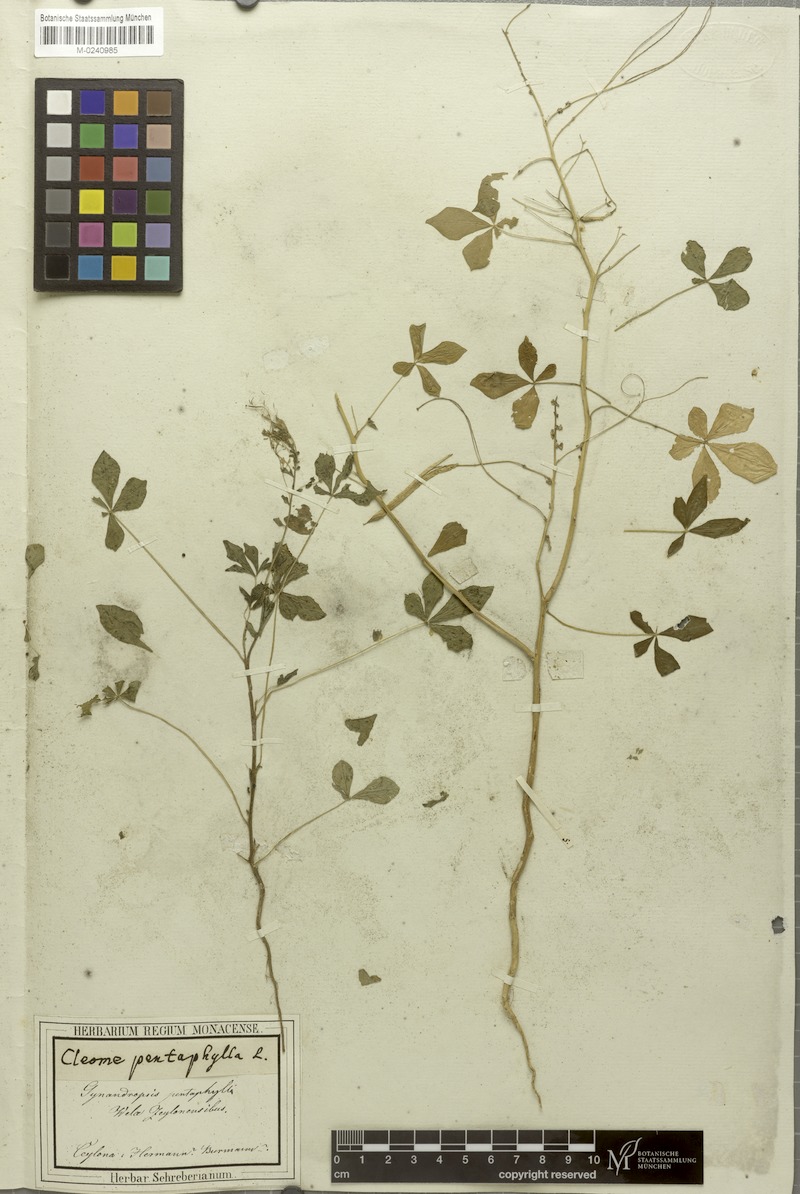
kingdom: Plantae
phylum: Tracheophyta
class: Magnoliopsida
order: Brassicales
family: Cleomaceae
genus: Gynandropsis
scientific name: Gynandropsis gynandra
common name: Spiderwisp
